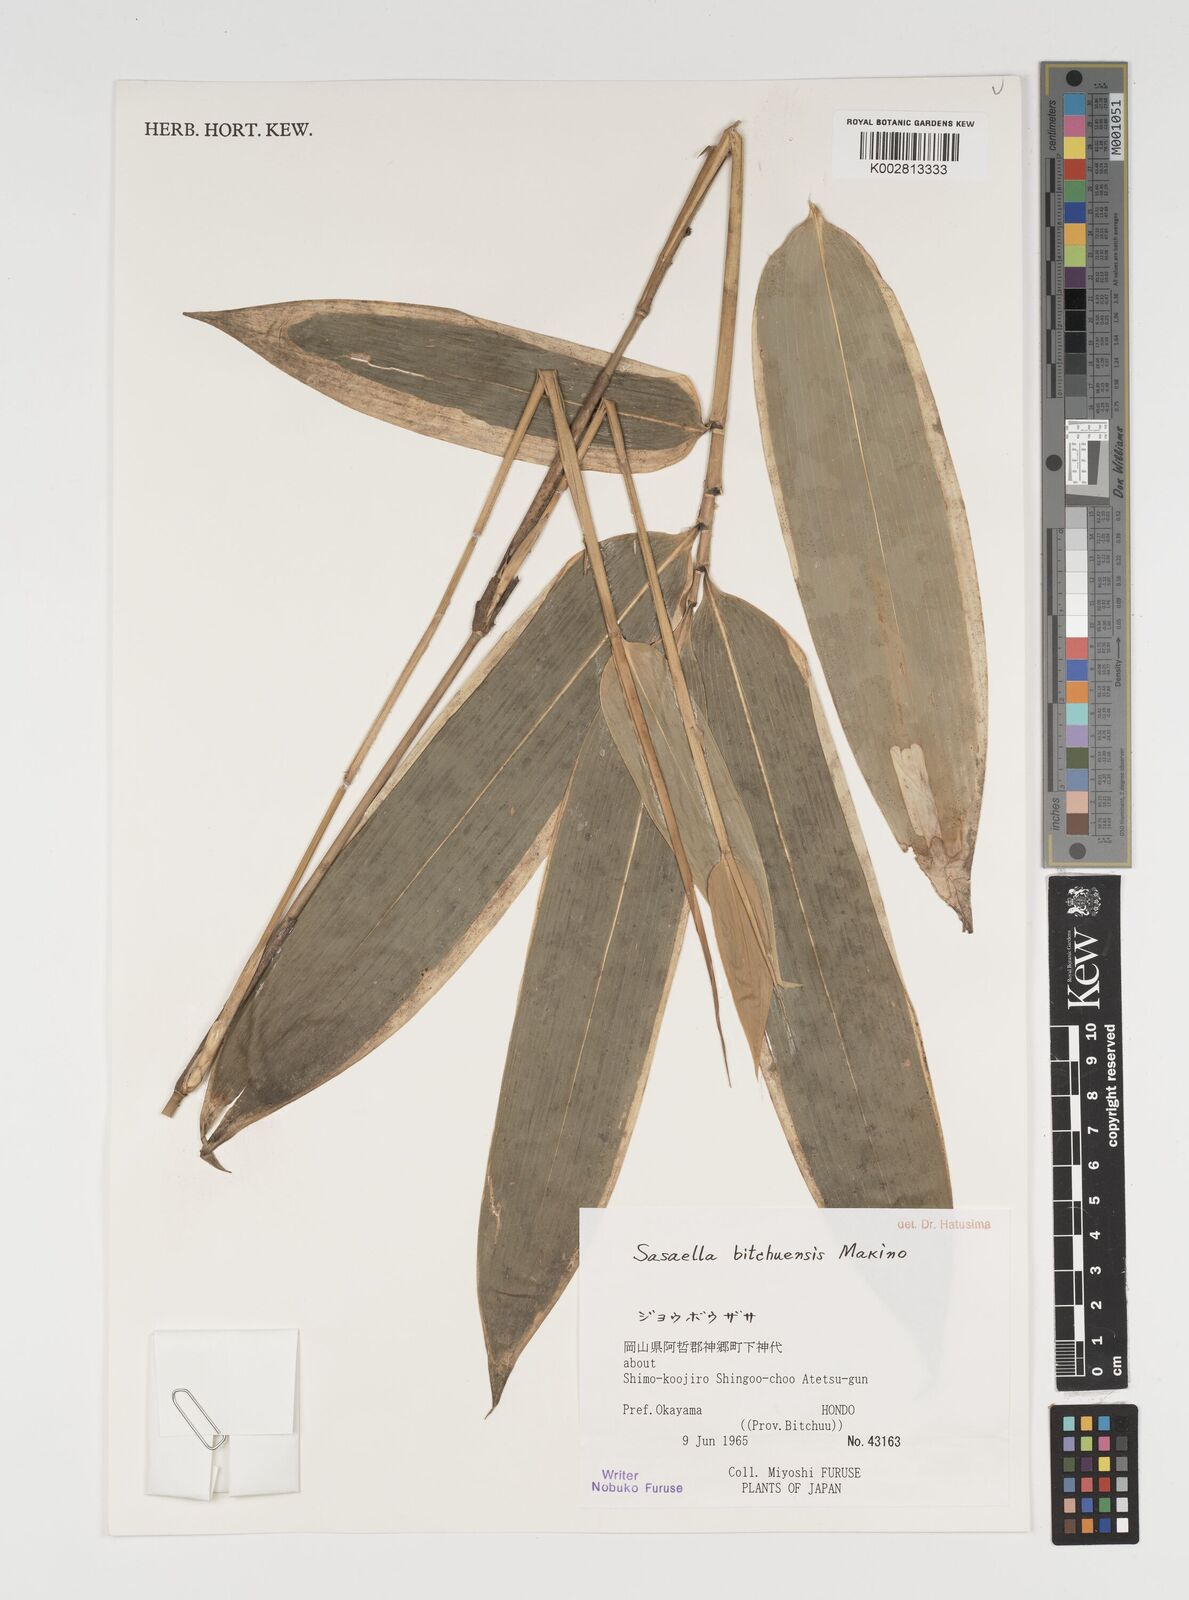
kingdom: Plantae
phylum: Tracheophyta
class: Liliopsida
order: Poales
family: Poaceae
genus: Sasaella
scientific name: Sasaella bitchuensis
